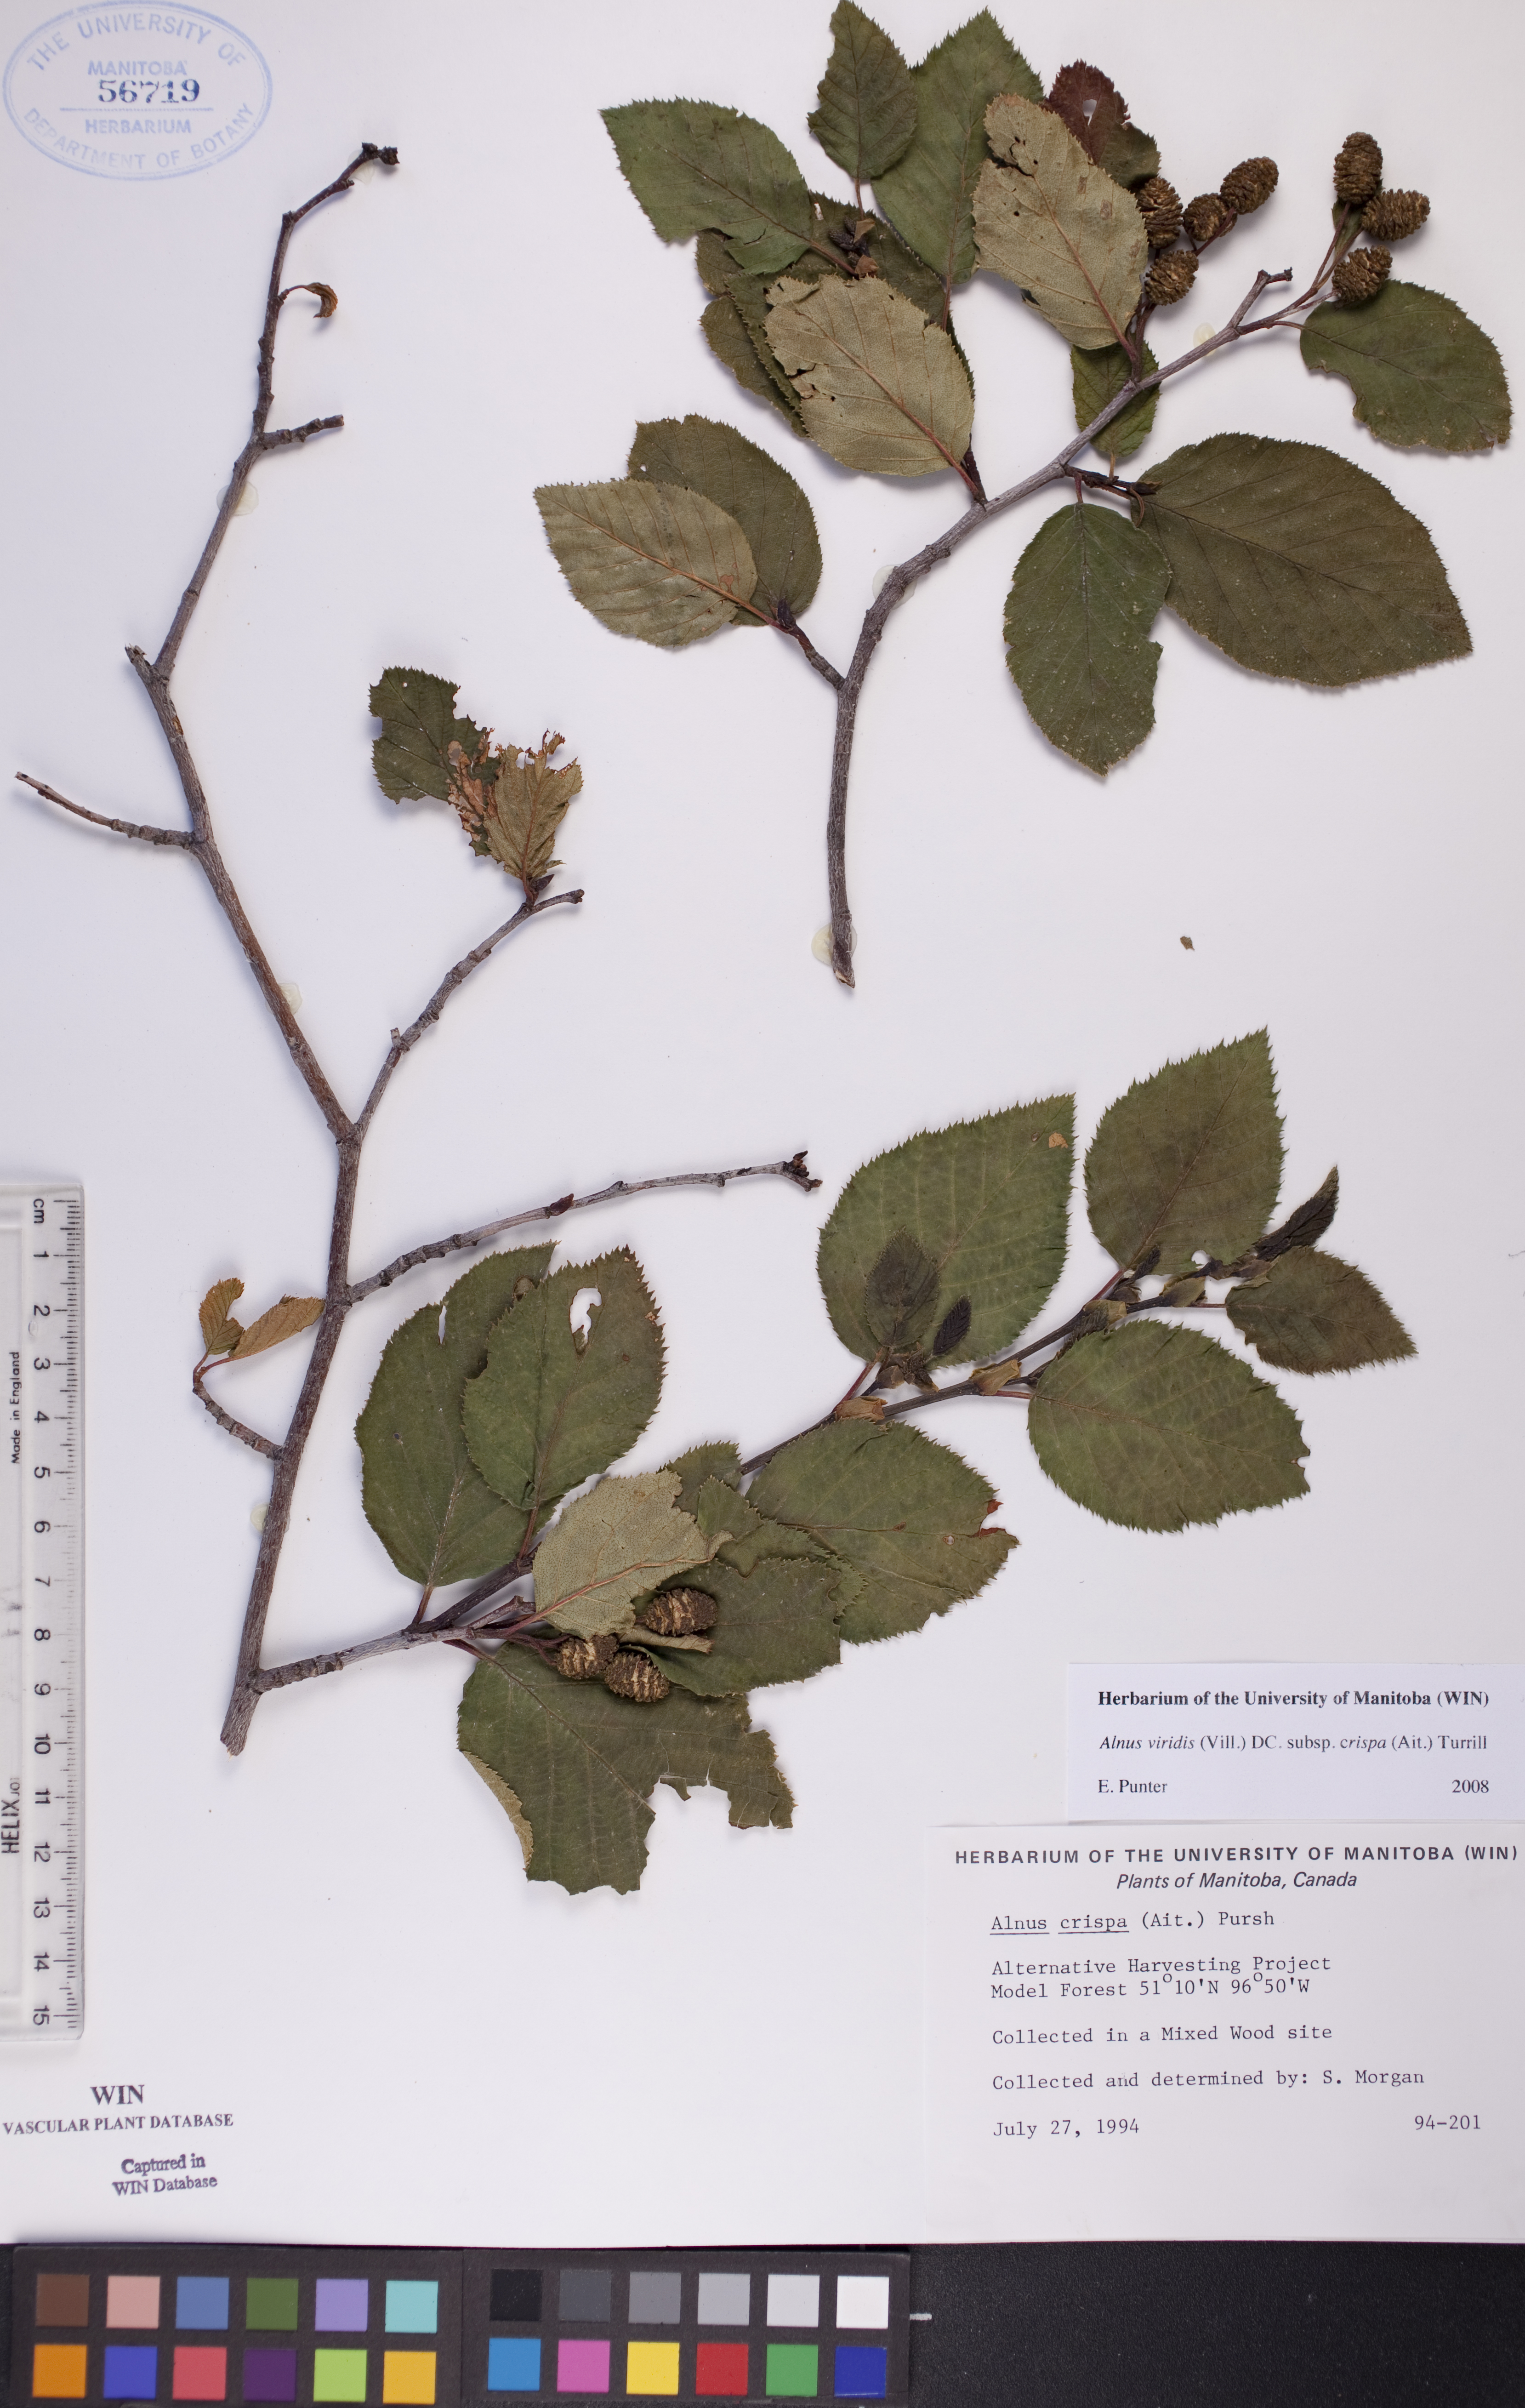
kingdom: Plantae
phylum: Tracheophyta
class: Magnoliopsida
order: Fagales
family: Betulaceae
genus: Alnus
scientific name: Alnus alnobetula
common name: Green alder
